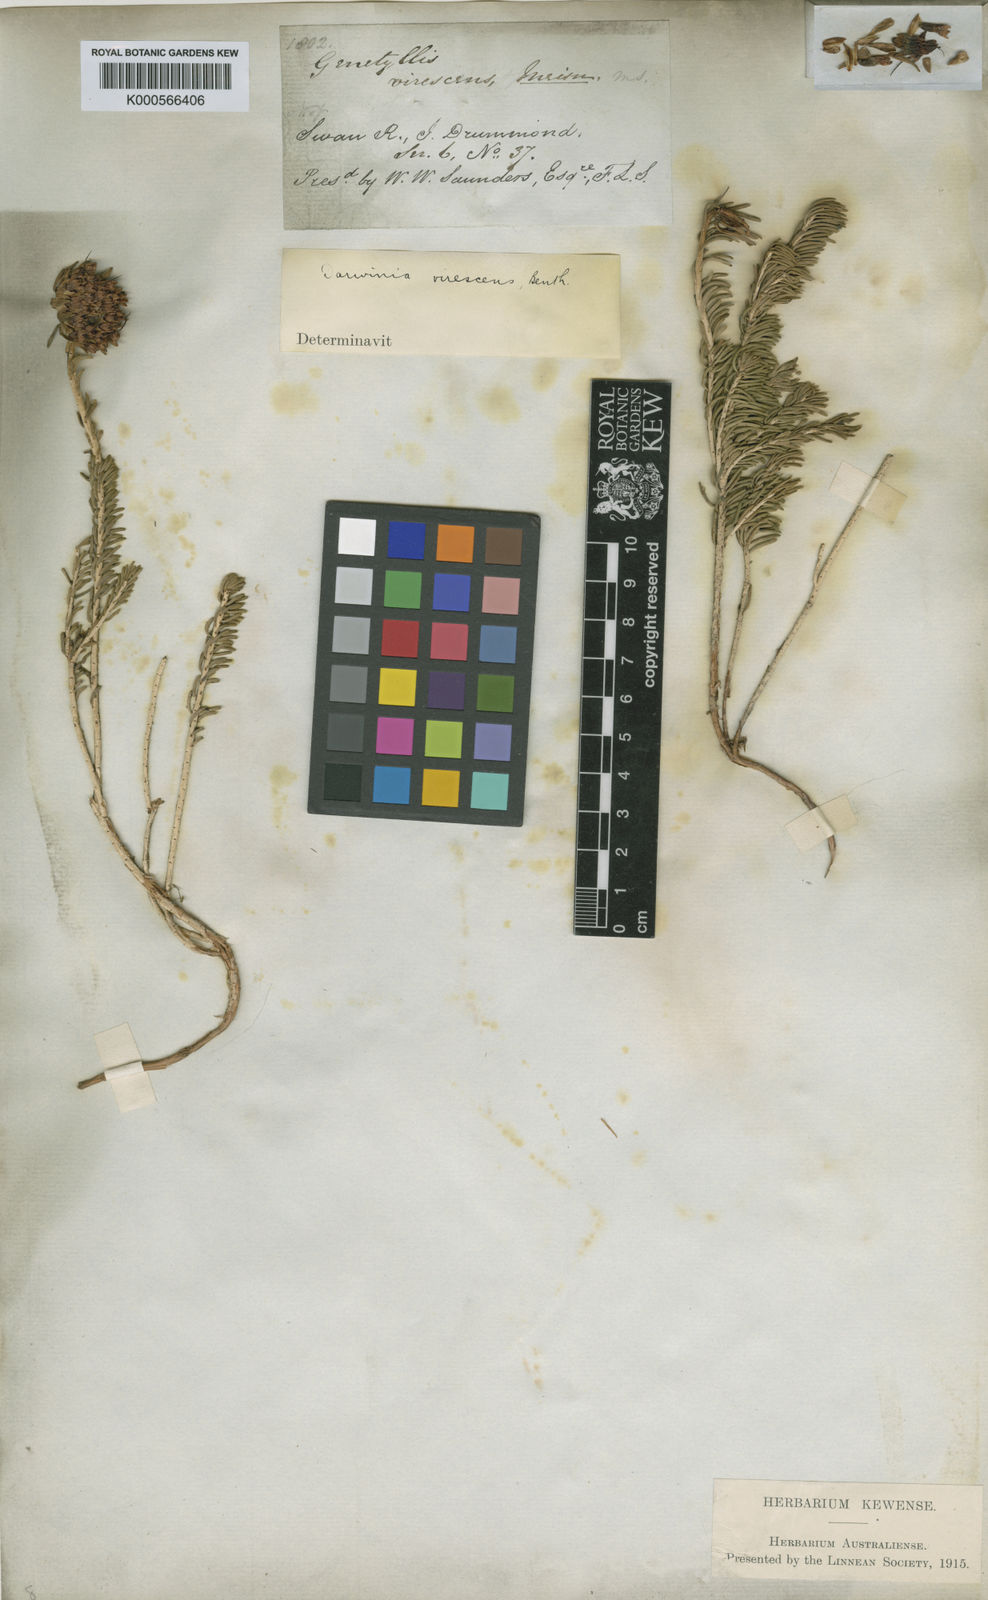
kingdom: Plantae
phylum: Tracheophyta
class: Magnoliopsida
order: Myrtales
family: Myrtaceae
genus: Darwinia
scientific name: Darwinia virescens
